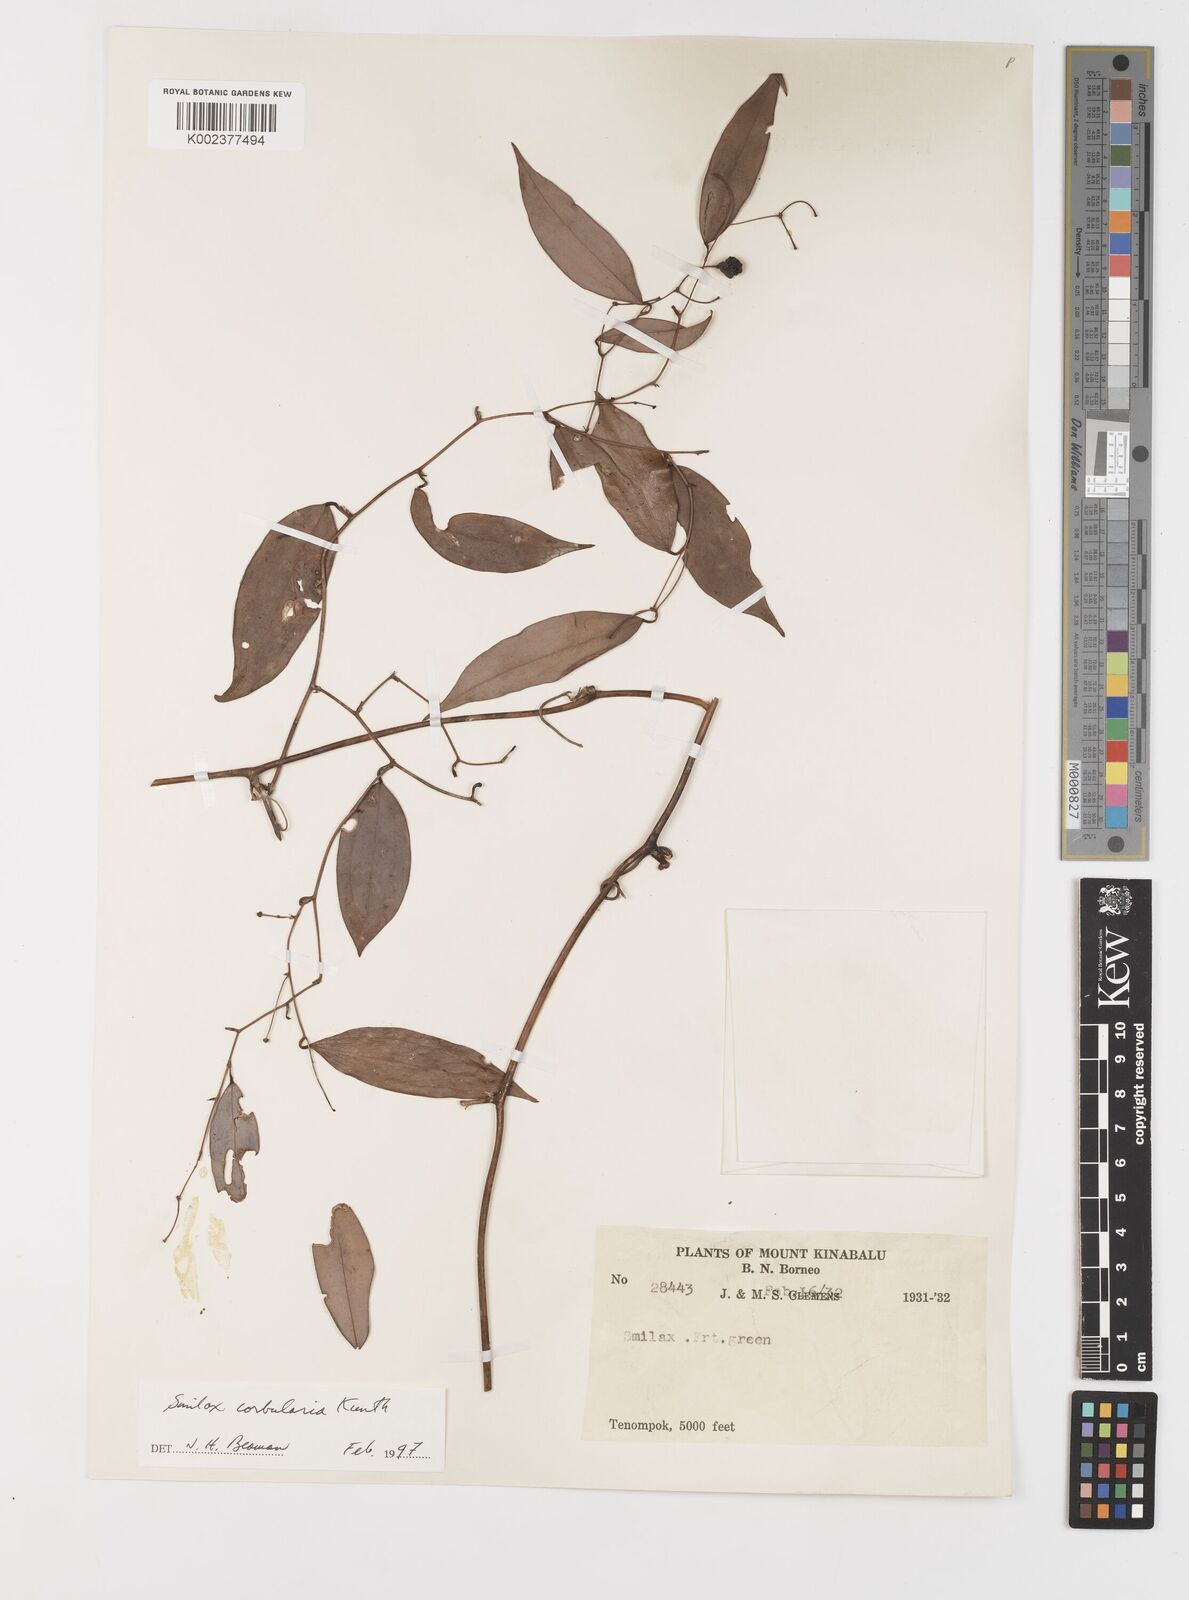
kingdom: Plantae
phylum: Tracheophyta
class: Liliopsida
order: Liliales
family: Smilacaceae
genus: Smilax
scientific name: Smilax corbularia
